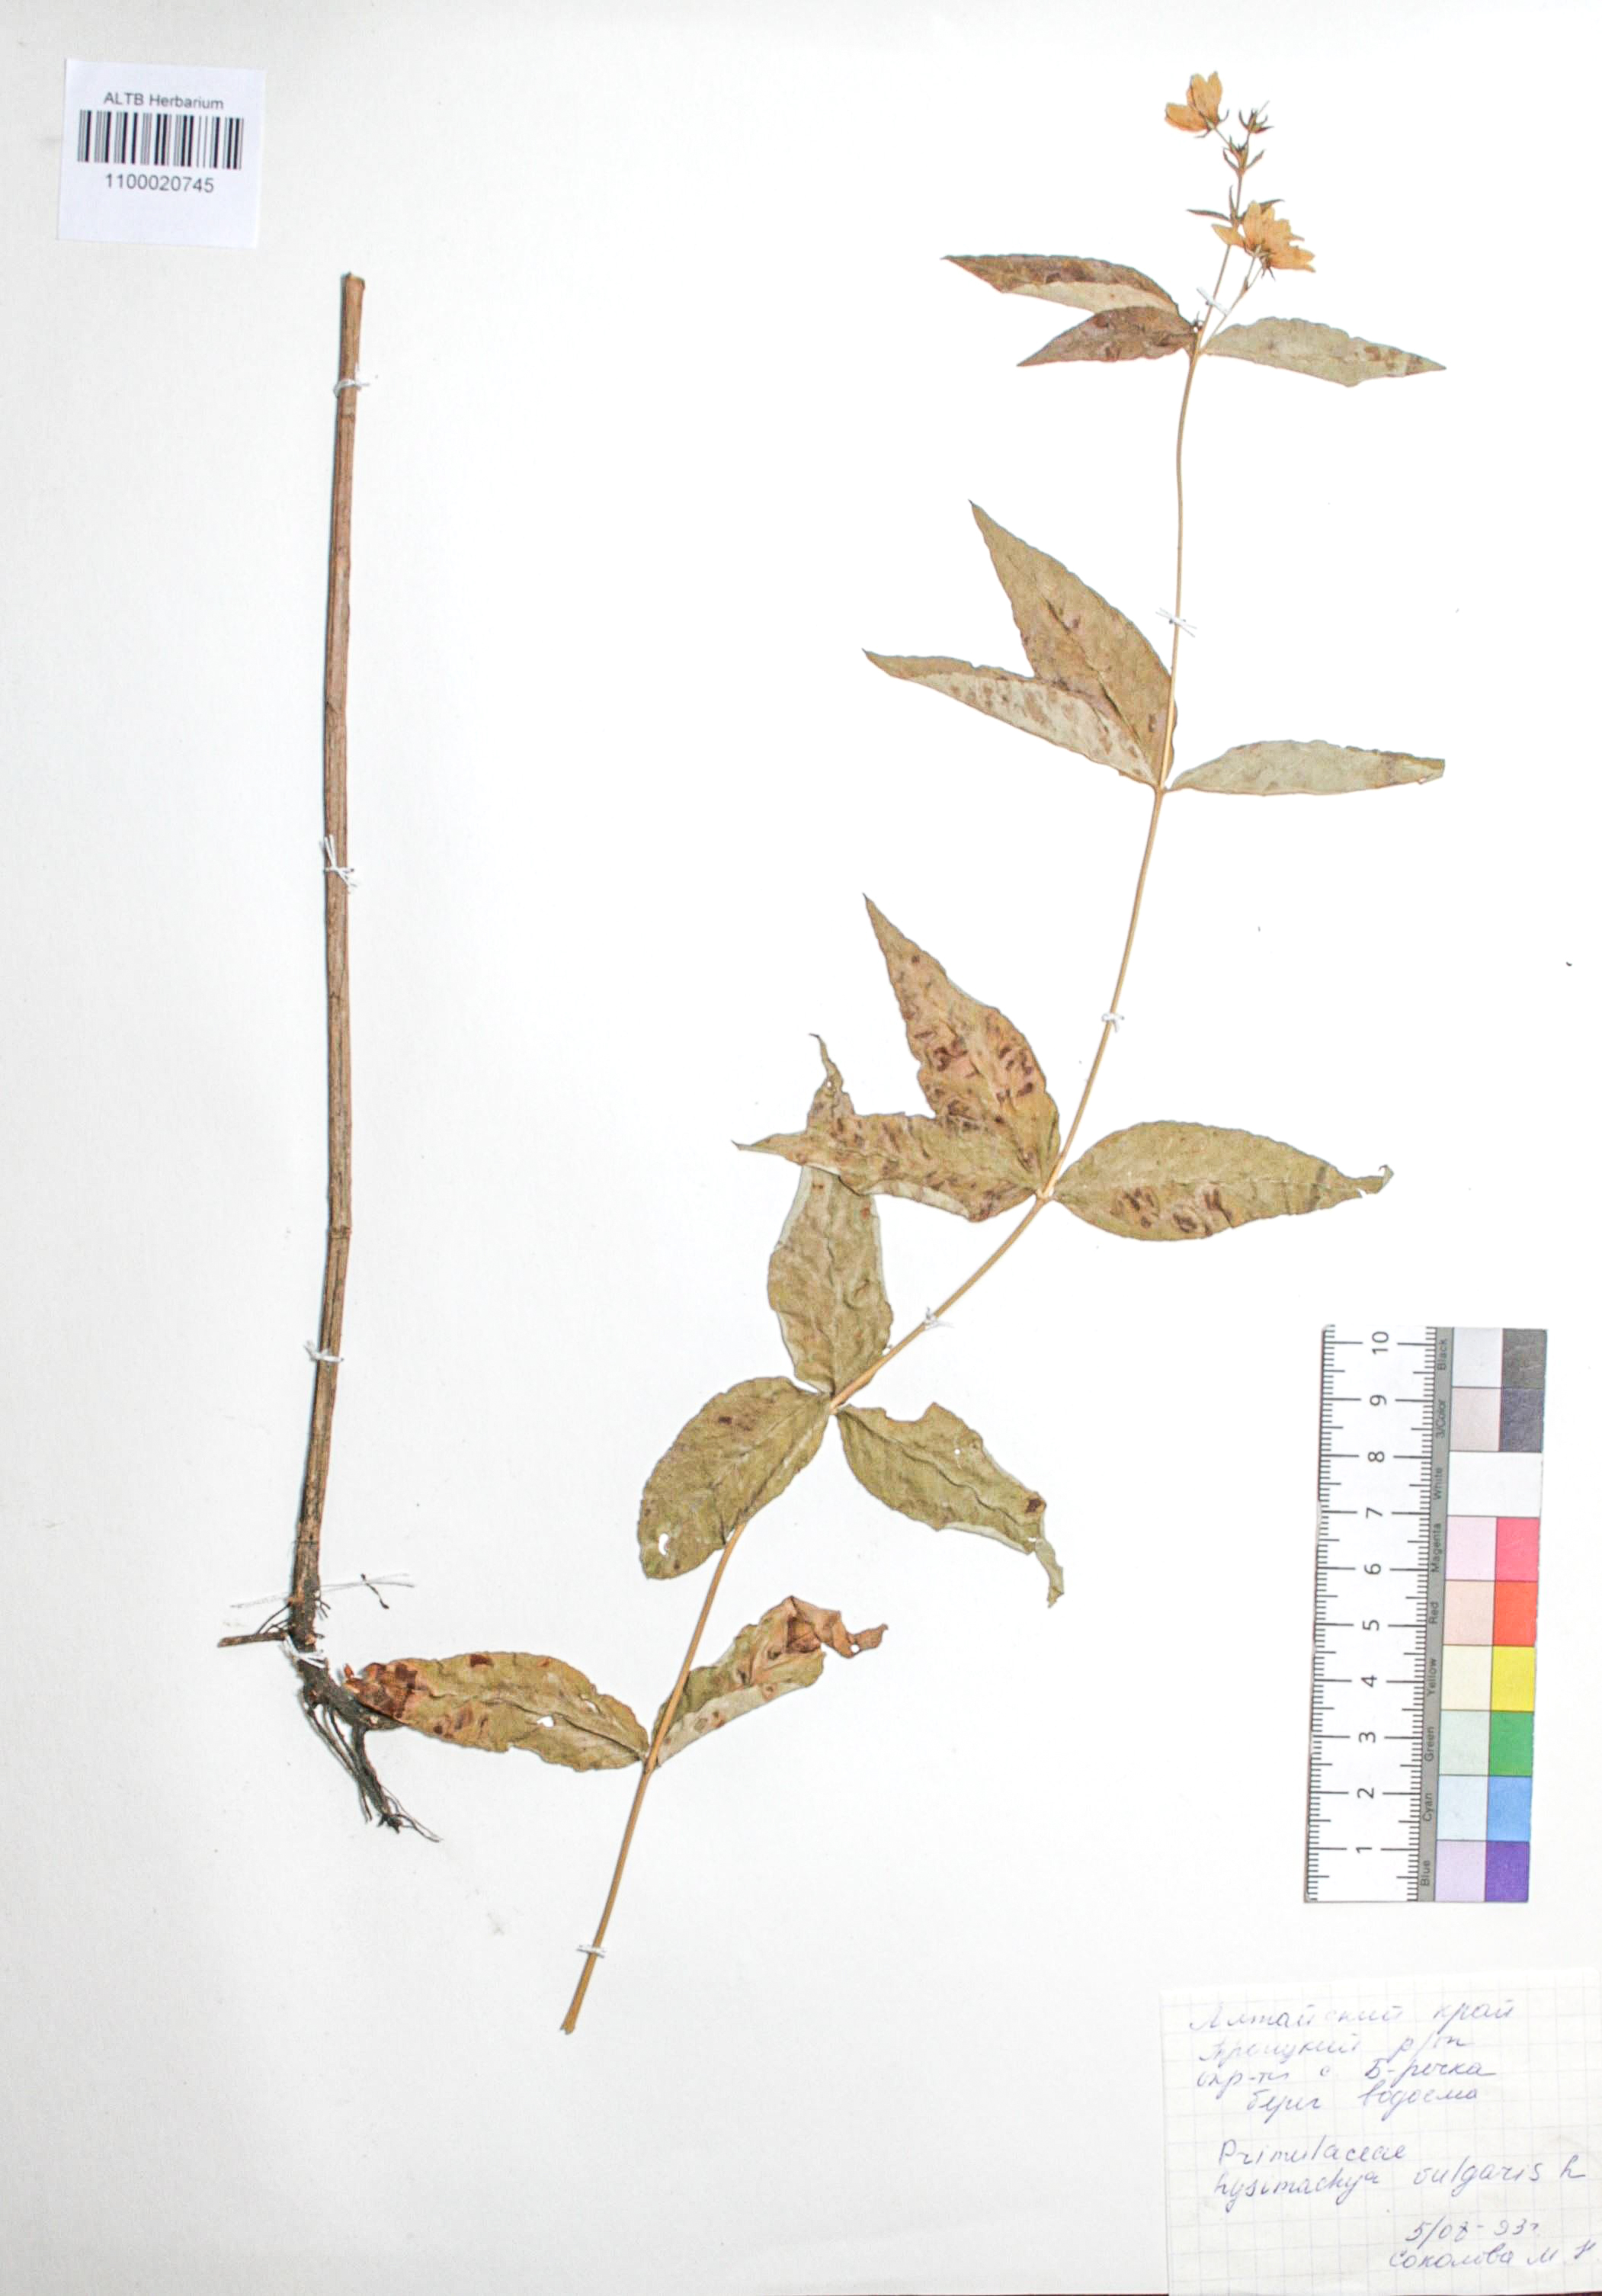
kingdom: Plantae
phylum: Tracheophyta
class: Magnoliopsida
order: Ericales
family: Primulaceae
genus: Lysimachia
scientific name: Lysimachia vulgaris
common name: Yellow loosestrife
